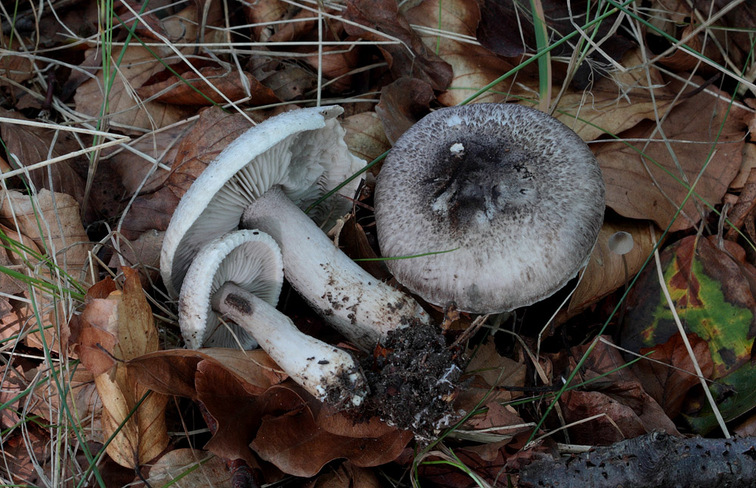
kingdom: Fungi
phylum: Basidiomycota
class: Agaricomycetes
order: Agaricales
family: Tricholomataceae
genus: Tricholoma
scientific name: Tricholoma atrosquamosum
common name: sortskællet ridderhat
